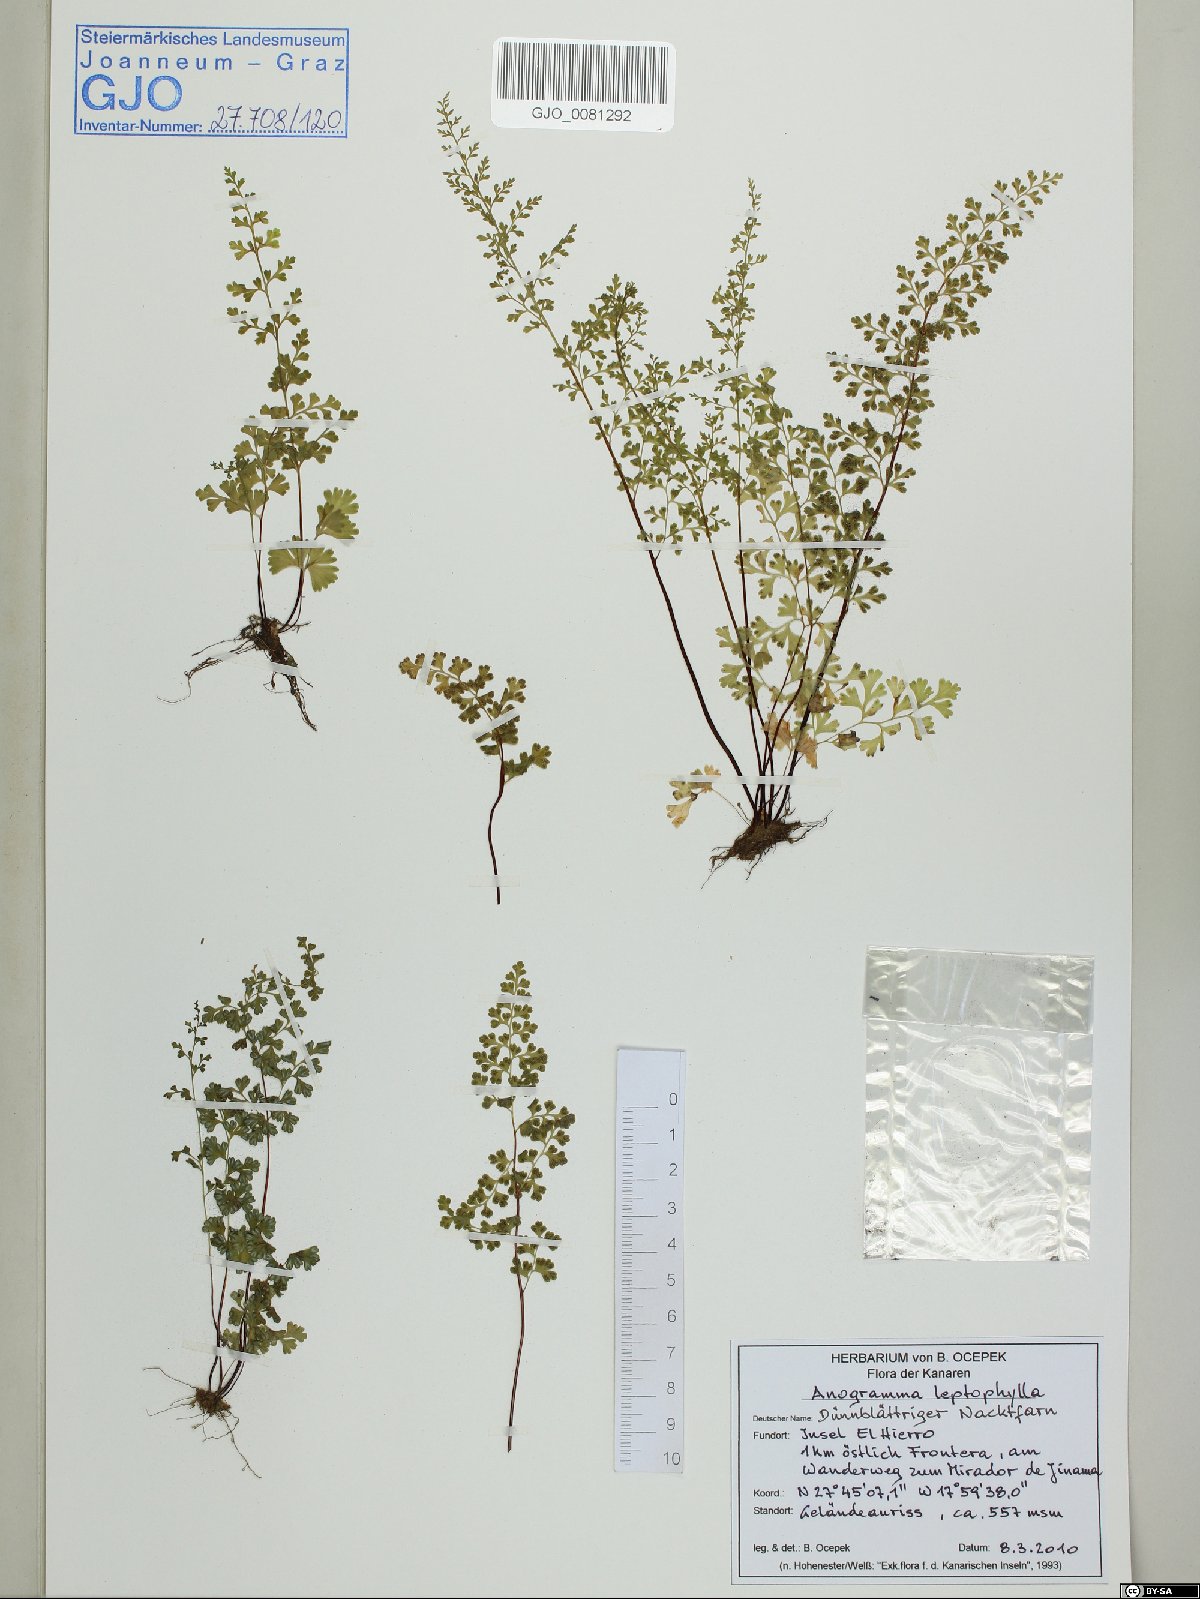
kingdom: Plantae
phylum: Tracheophyta
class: Polypodiopsida
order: Polypodiales
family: Pteridaceae
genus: Anogramma
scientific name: Anogramma leptophylla
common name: Jersey fern
